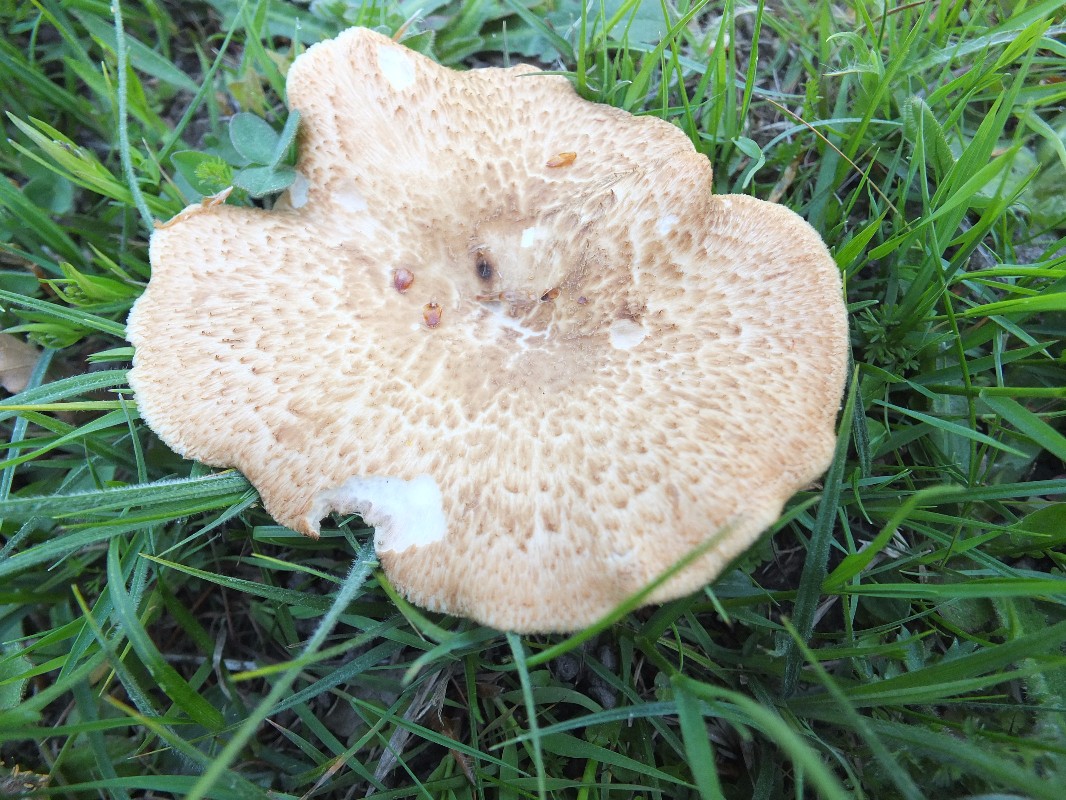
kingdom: Fungi
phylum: Basidiomycota
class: Agaricomycetes
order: Polyporales
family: Polyporaceae
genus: Polyporus
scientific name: Polyporus tuberaster
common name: knoldet stilkporesvamp
